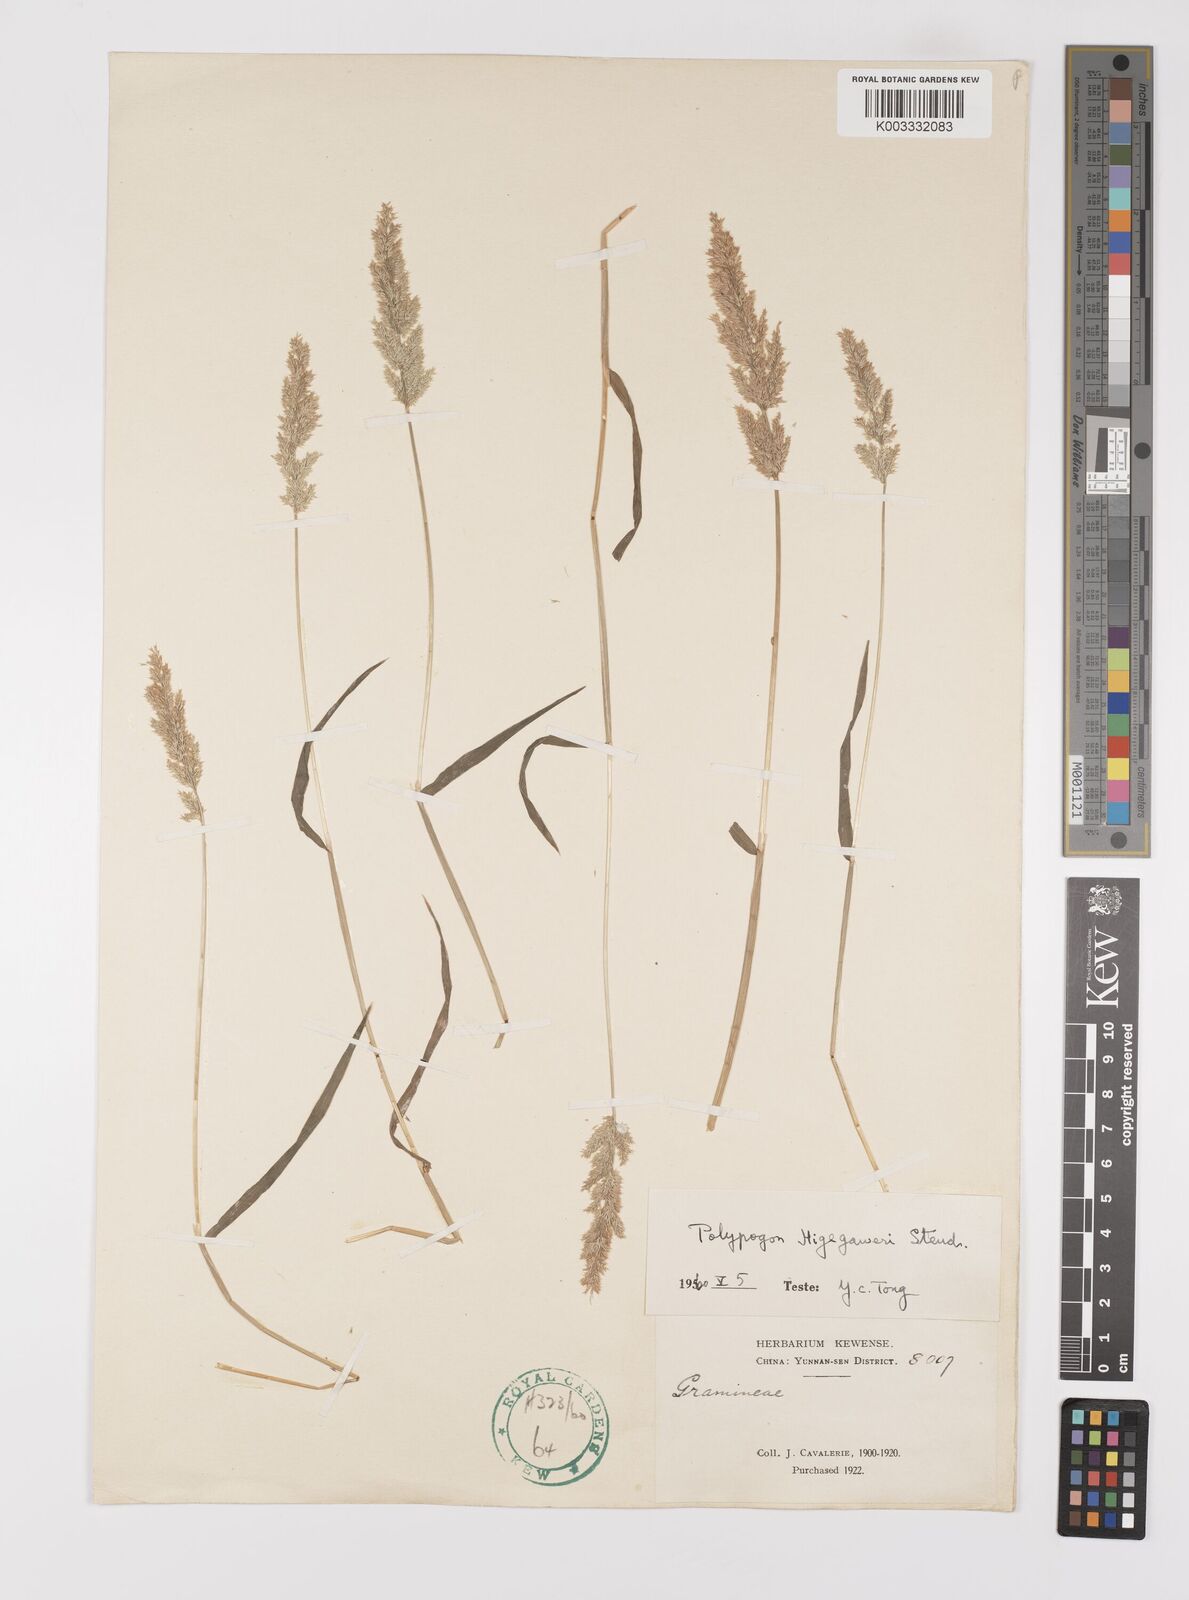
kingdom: Plantae
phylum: Tracheophyta
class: Liliopsida
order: Poales
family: Poaceae
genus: Polypogon
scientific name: Polypogon fugax
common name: Asia minor bluegrass
